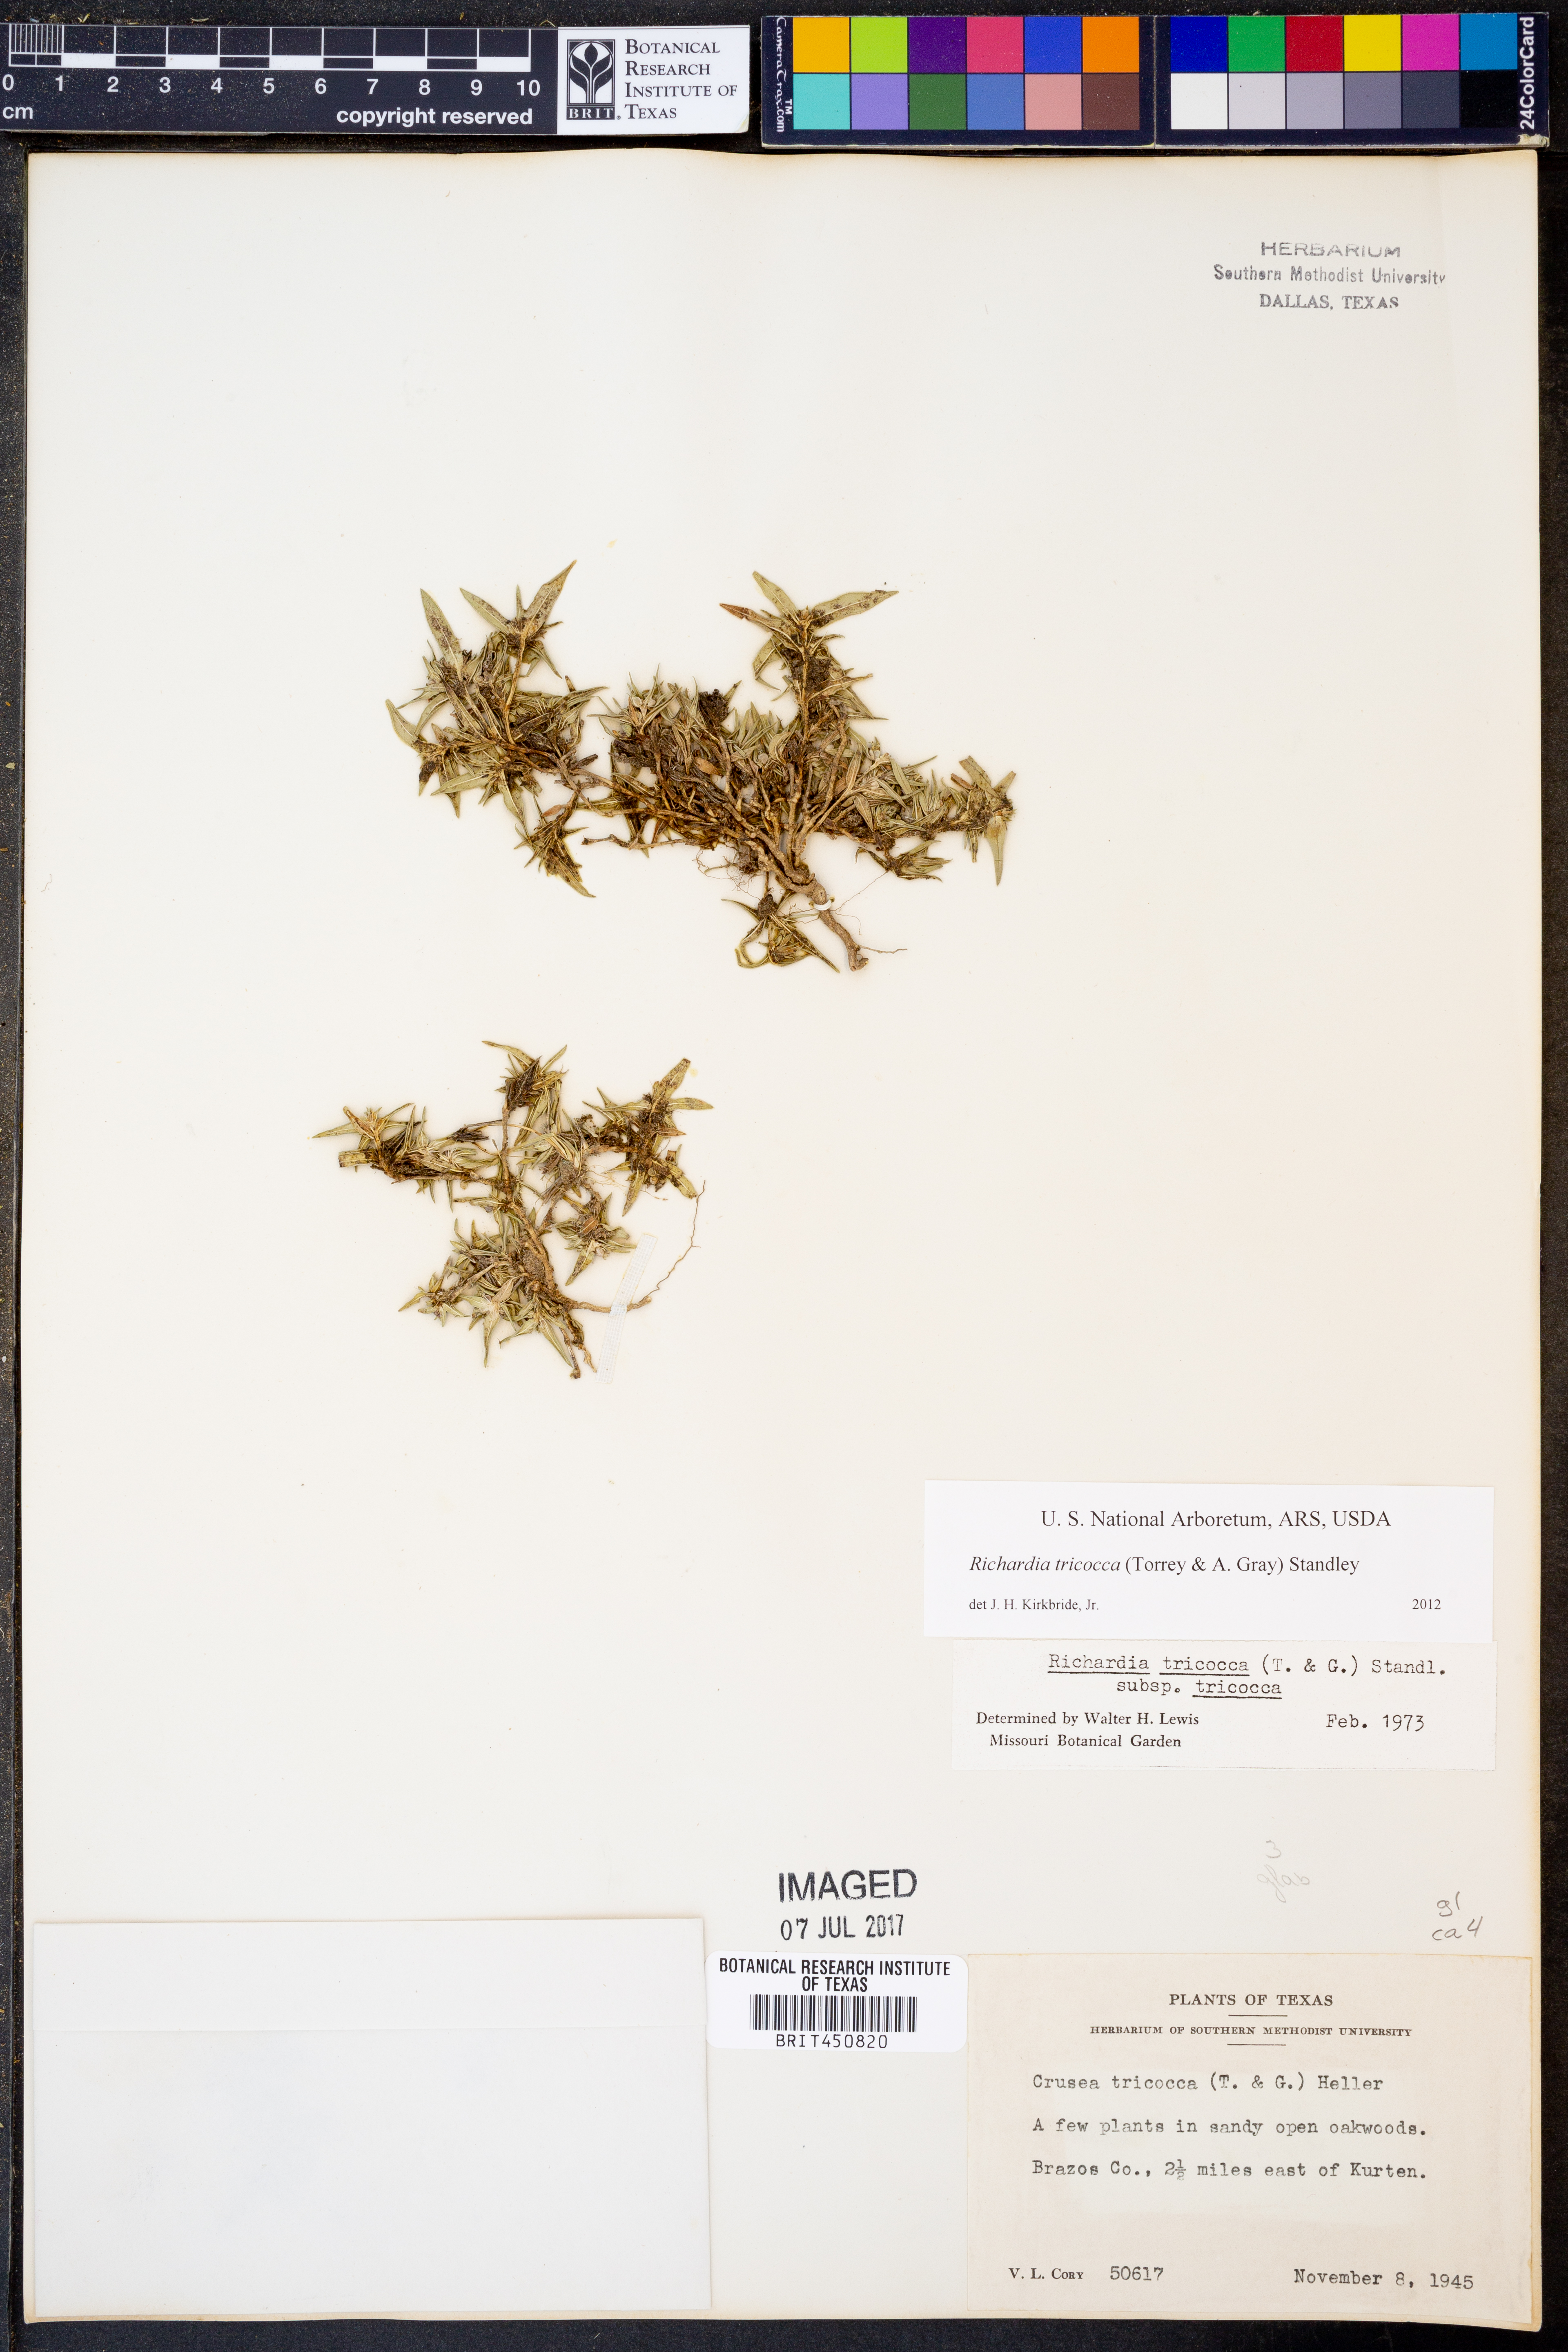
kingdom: Plantae
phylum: Tracheophyta
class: Magnoliopsida
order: Gentianales
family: Rubiaceae
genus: Richardia
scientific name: Richardia tricocca
